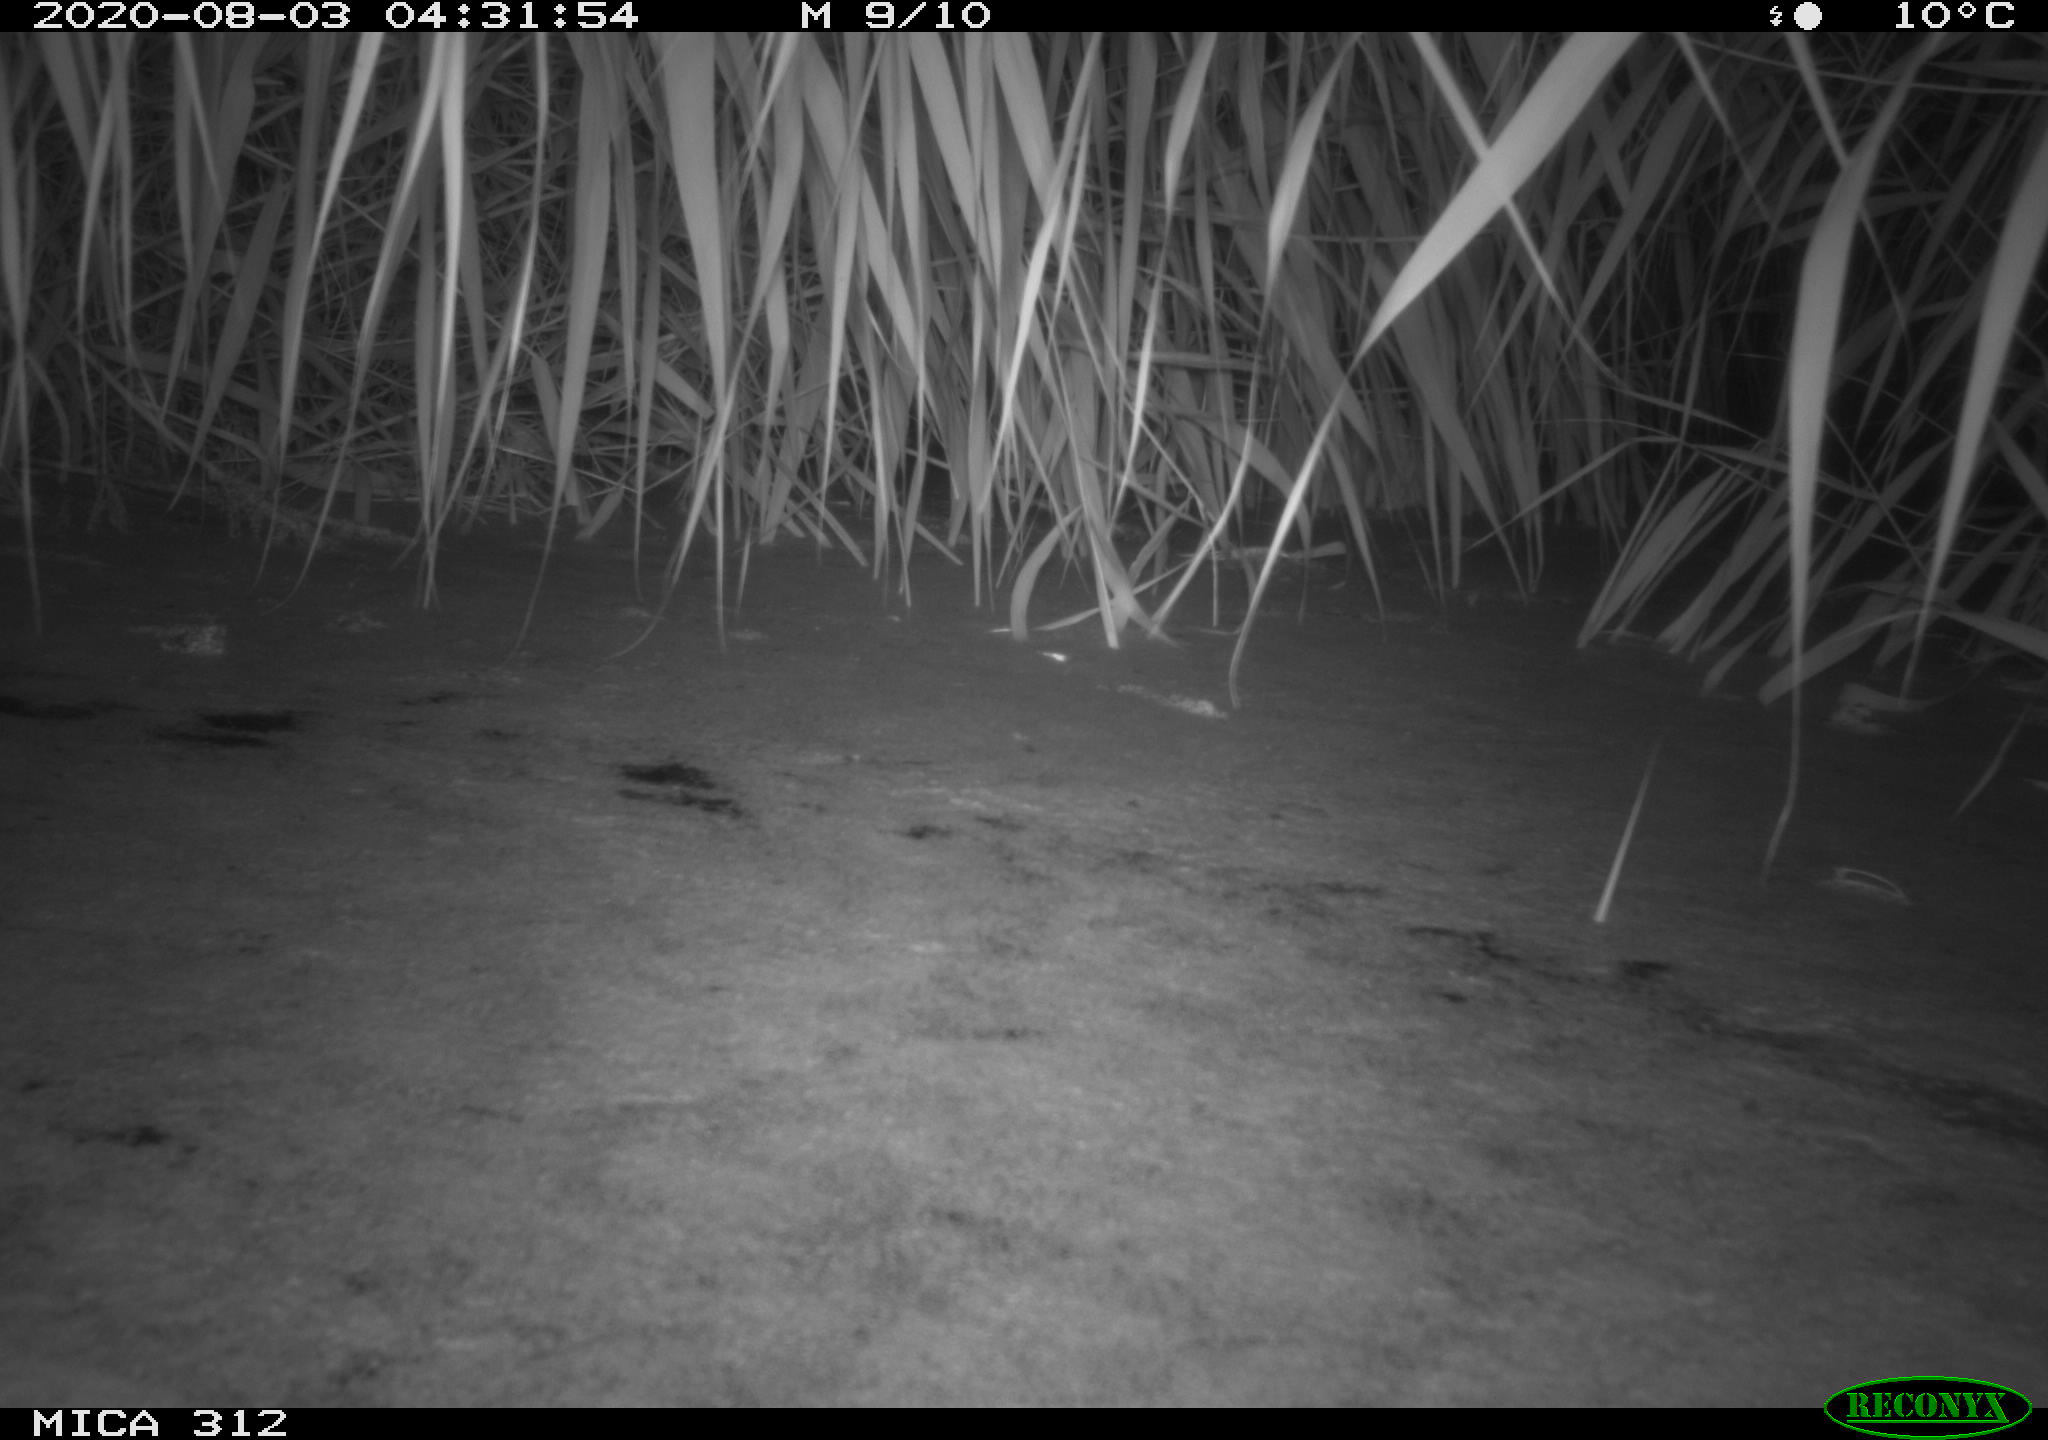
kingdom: Animalia
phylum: Chordata
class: Mammalia
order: Rodentia
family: Muridae
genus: Rattus
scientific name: Rattus norvegicus
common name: Brown rat
